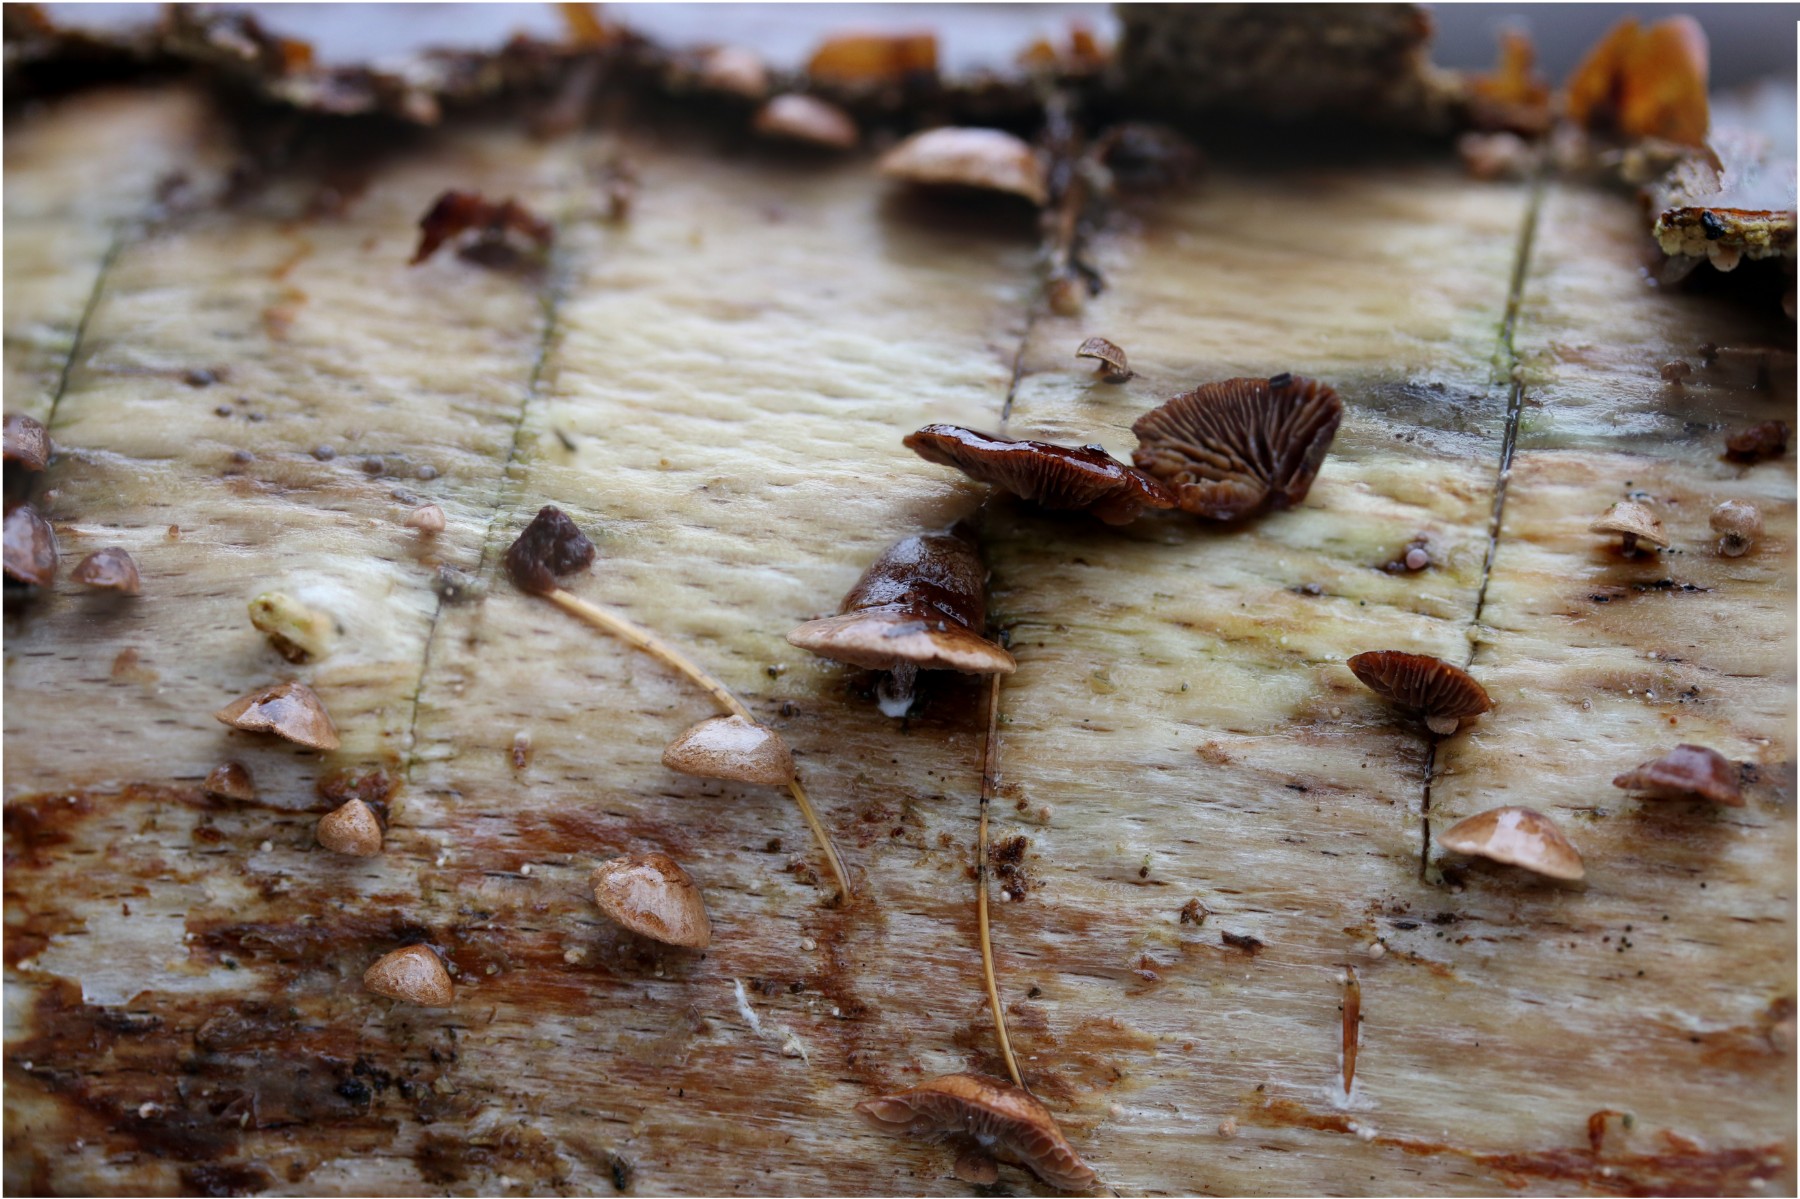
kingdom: Fungi
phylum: Basidiomycota
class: Agaricomycetes
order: Agaricales
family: Strophariaceae
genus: Deconica
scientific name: Deconica horizontalis
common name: ved-stråhat
